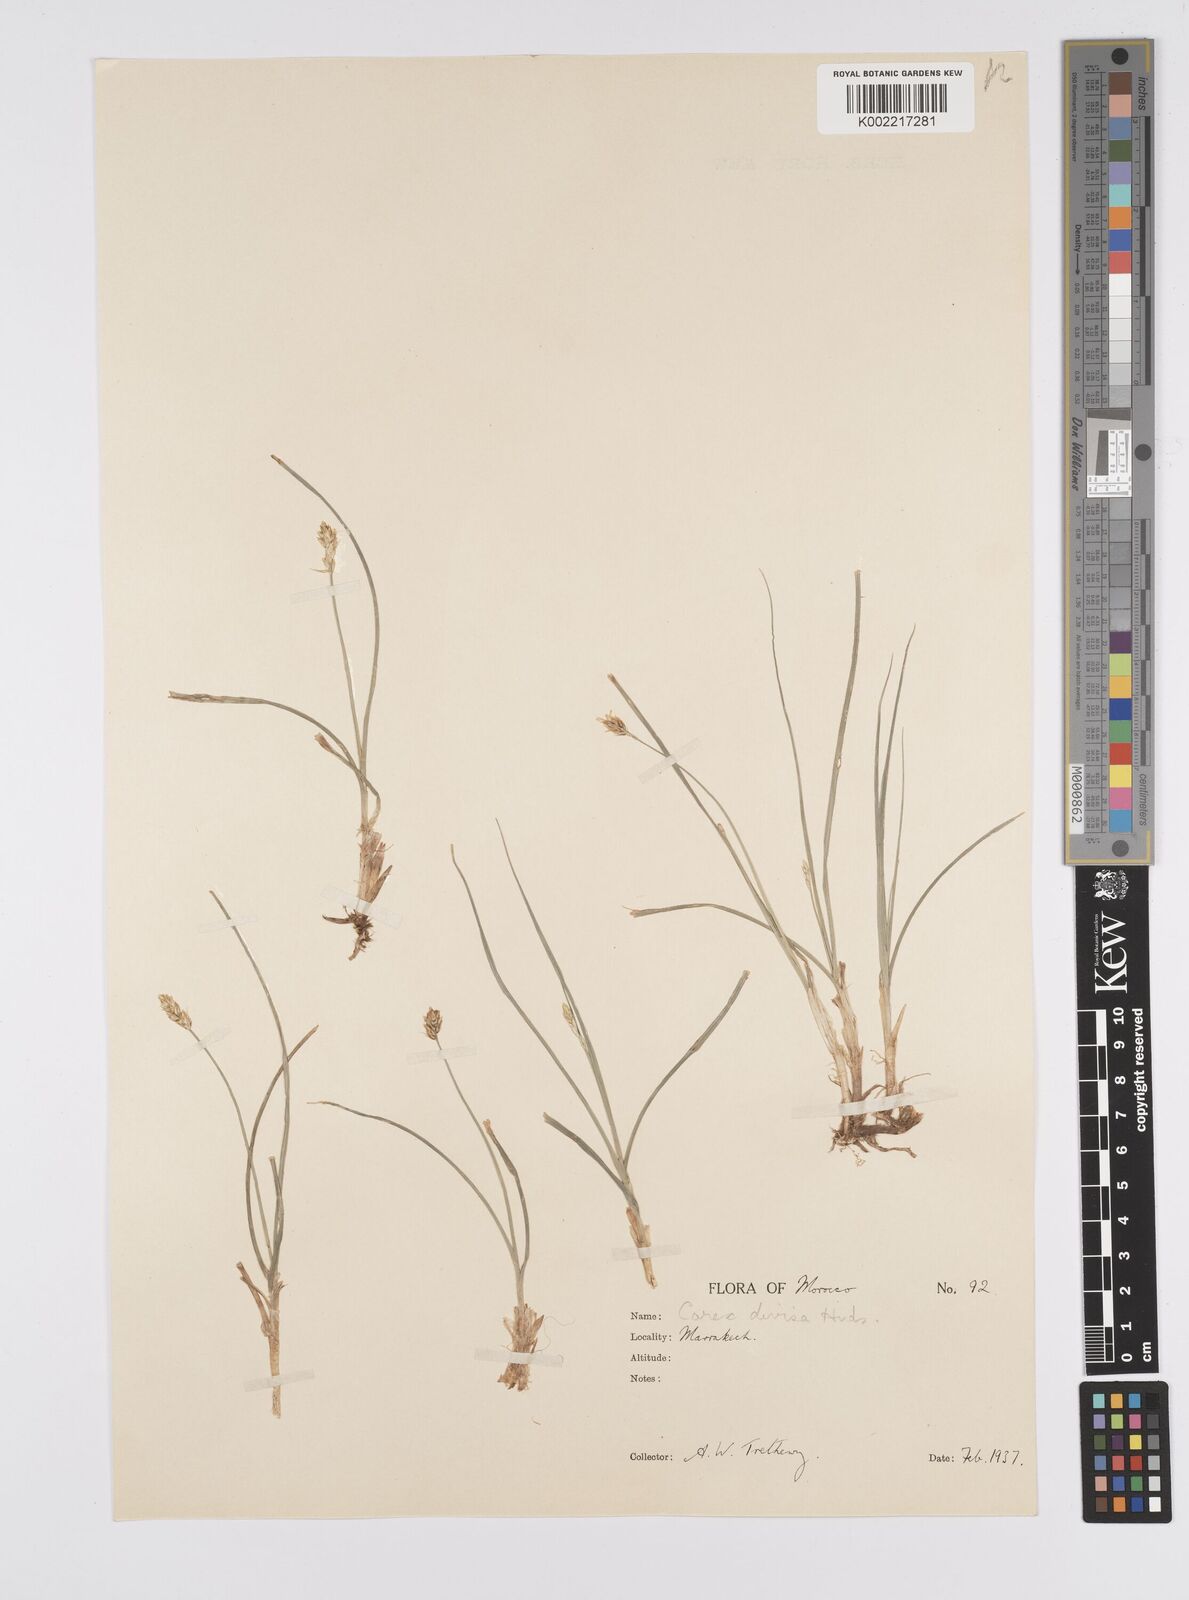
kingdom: Plantae
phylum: Tracheophyta
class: Liliopsida
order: Poales
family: Cyperaceae
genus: Carex
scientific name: Carex divisa
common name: Divided sedge
